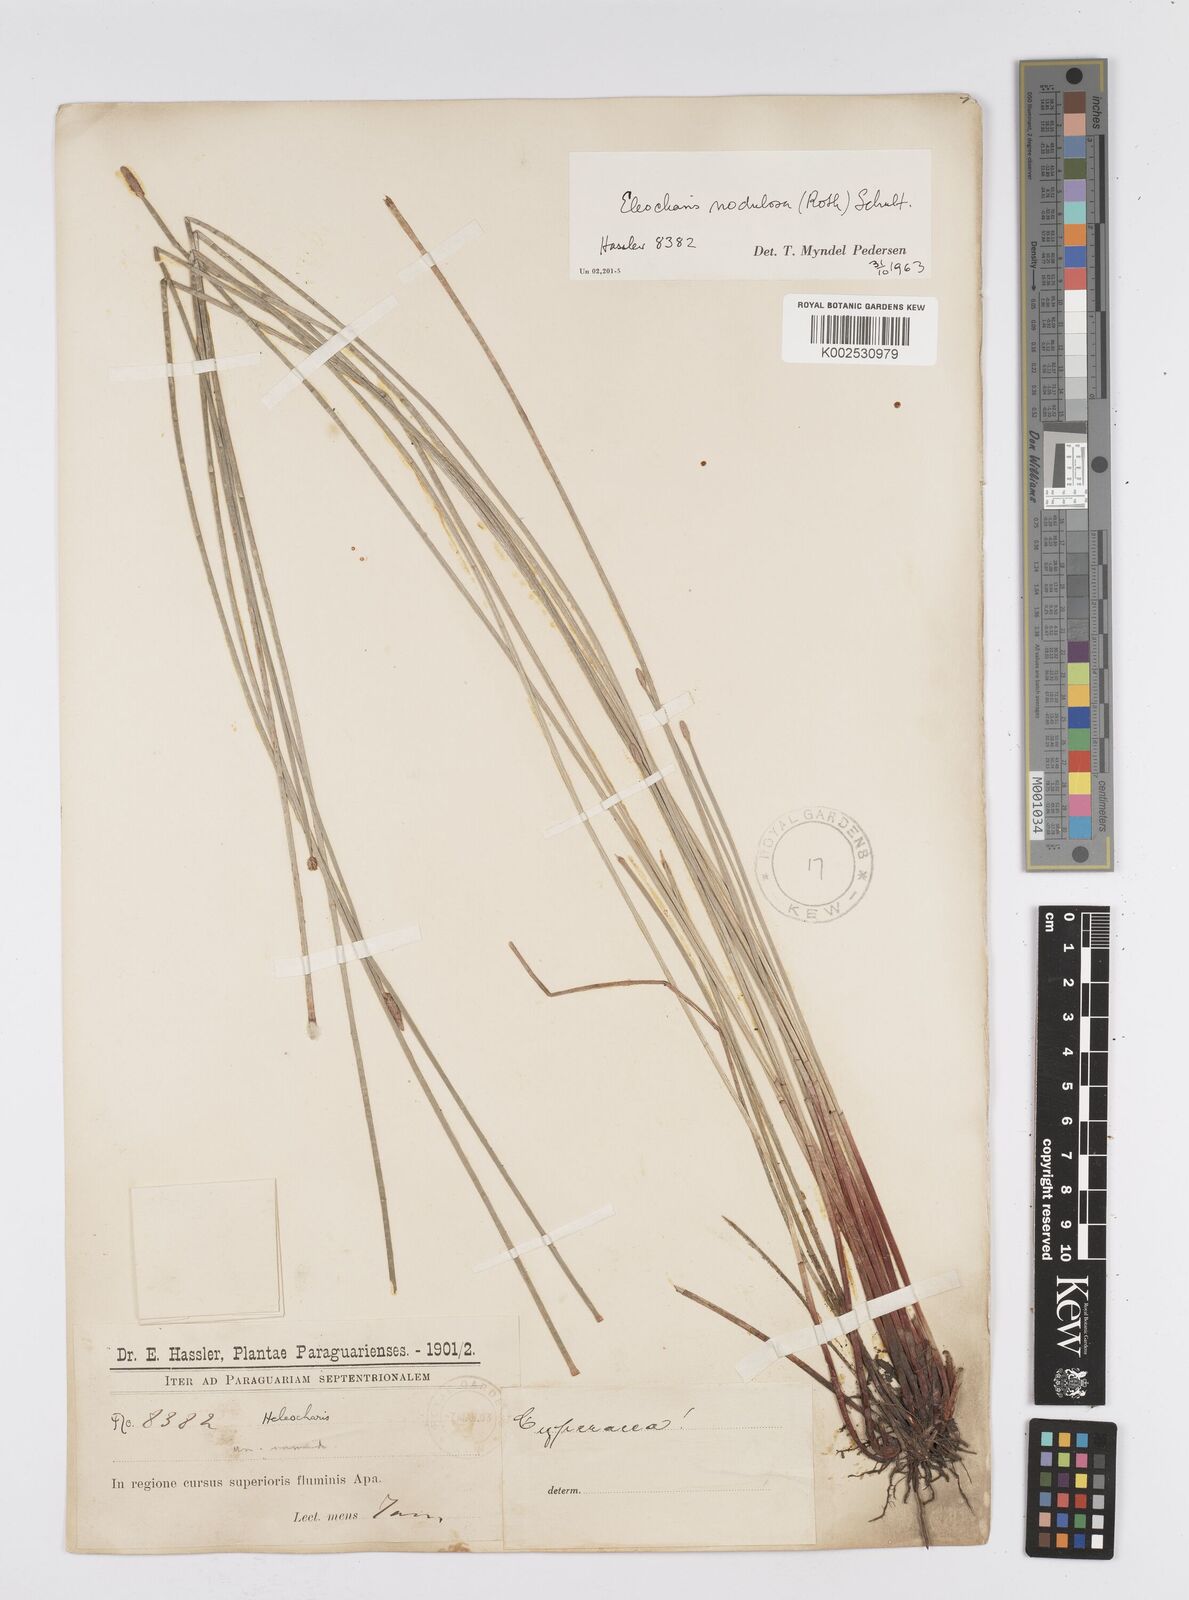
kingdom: Plantae
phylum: Tracheophyta
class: Liliopsida
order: Poales
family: Cyperaceae
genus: Eleocharis
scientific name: Eleocharis montana
